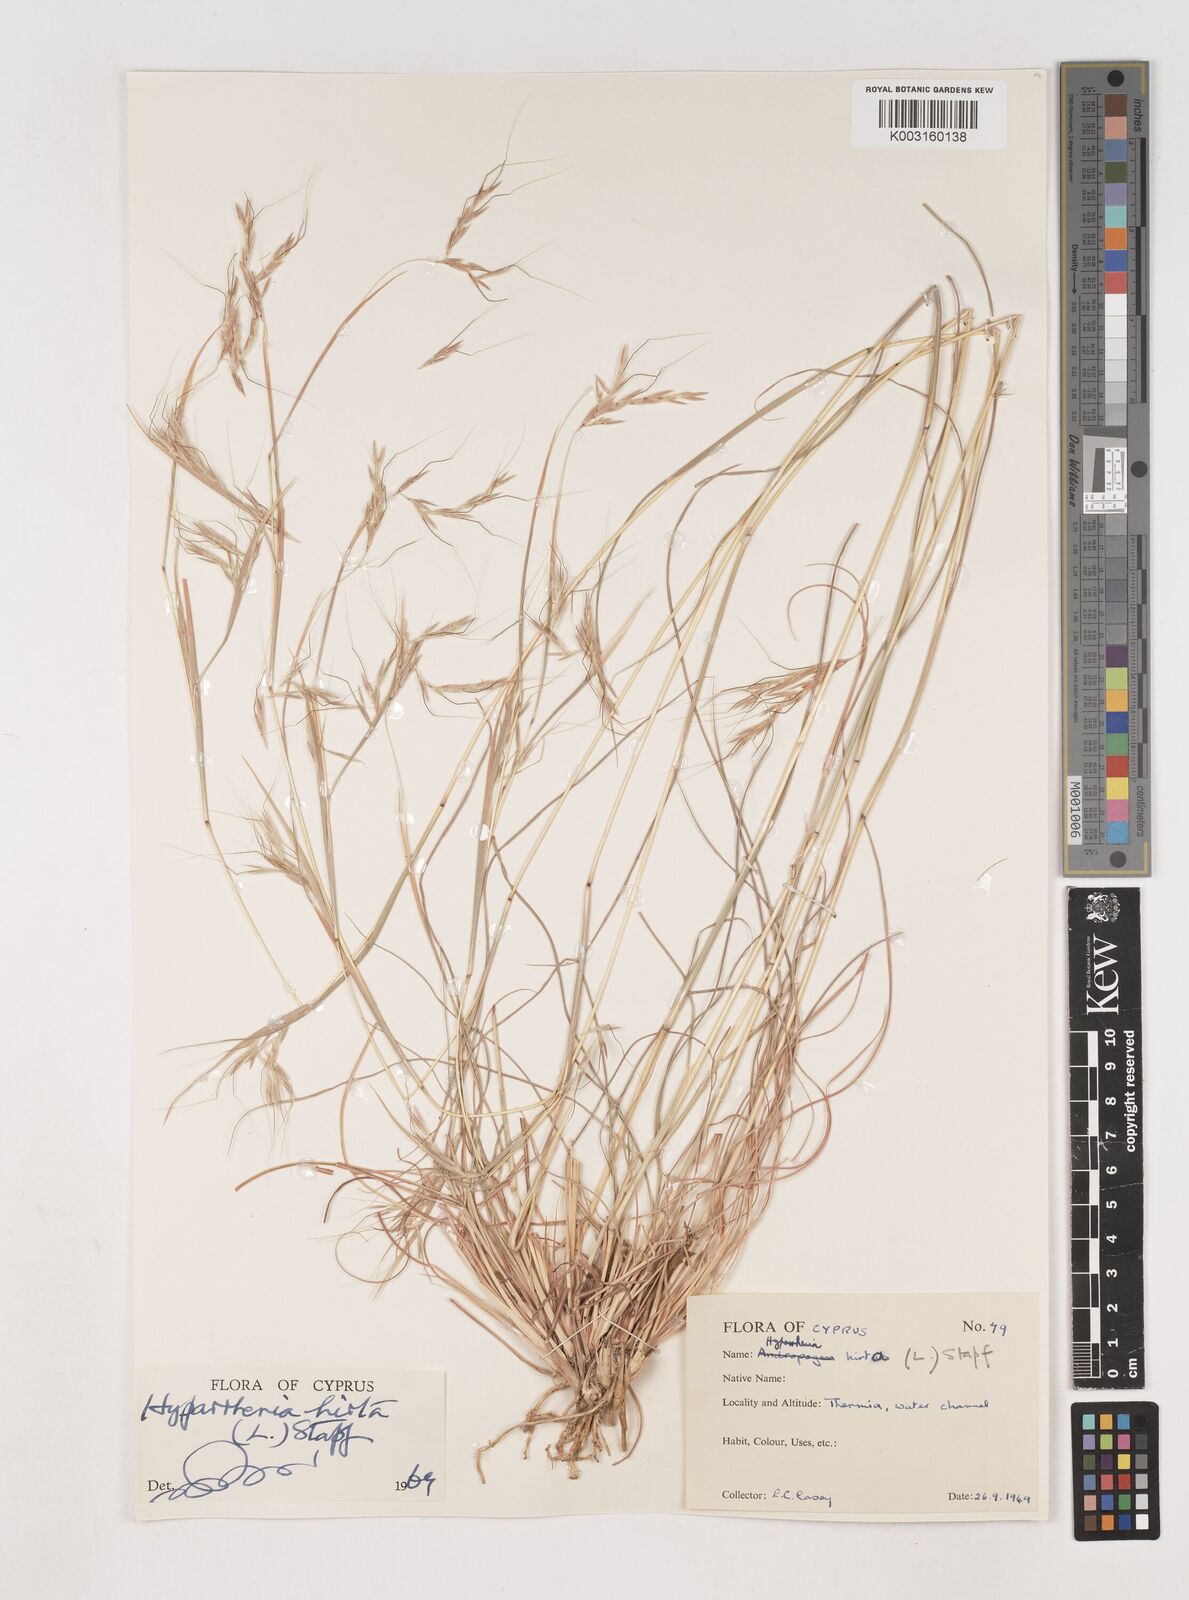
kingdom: Plantae
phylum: Tracheophyta
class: Liliopsida
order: Poales
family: Poaceae
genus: Hyparrhenia
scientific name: Hyparrhenia hirta
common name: Thatching grass
